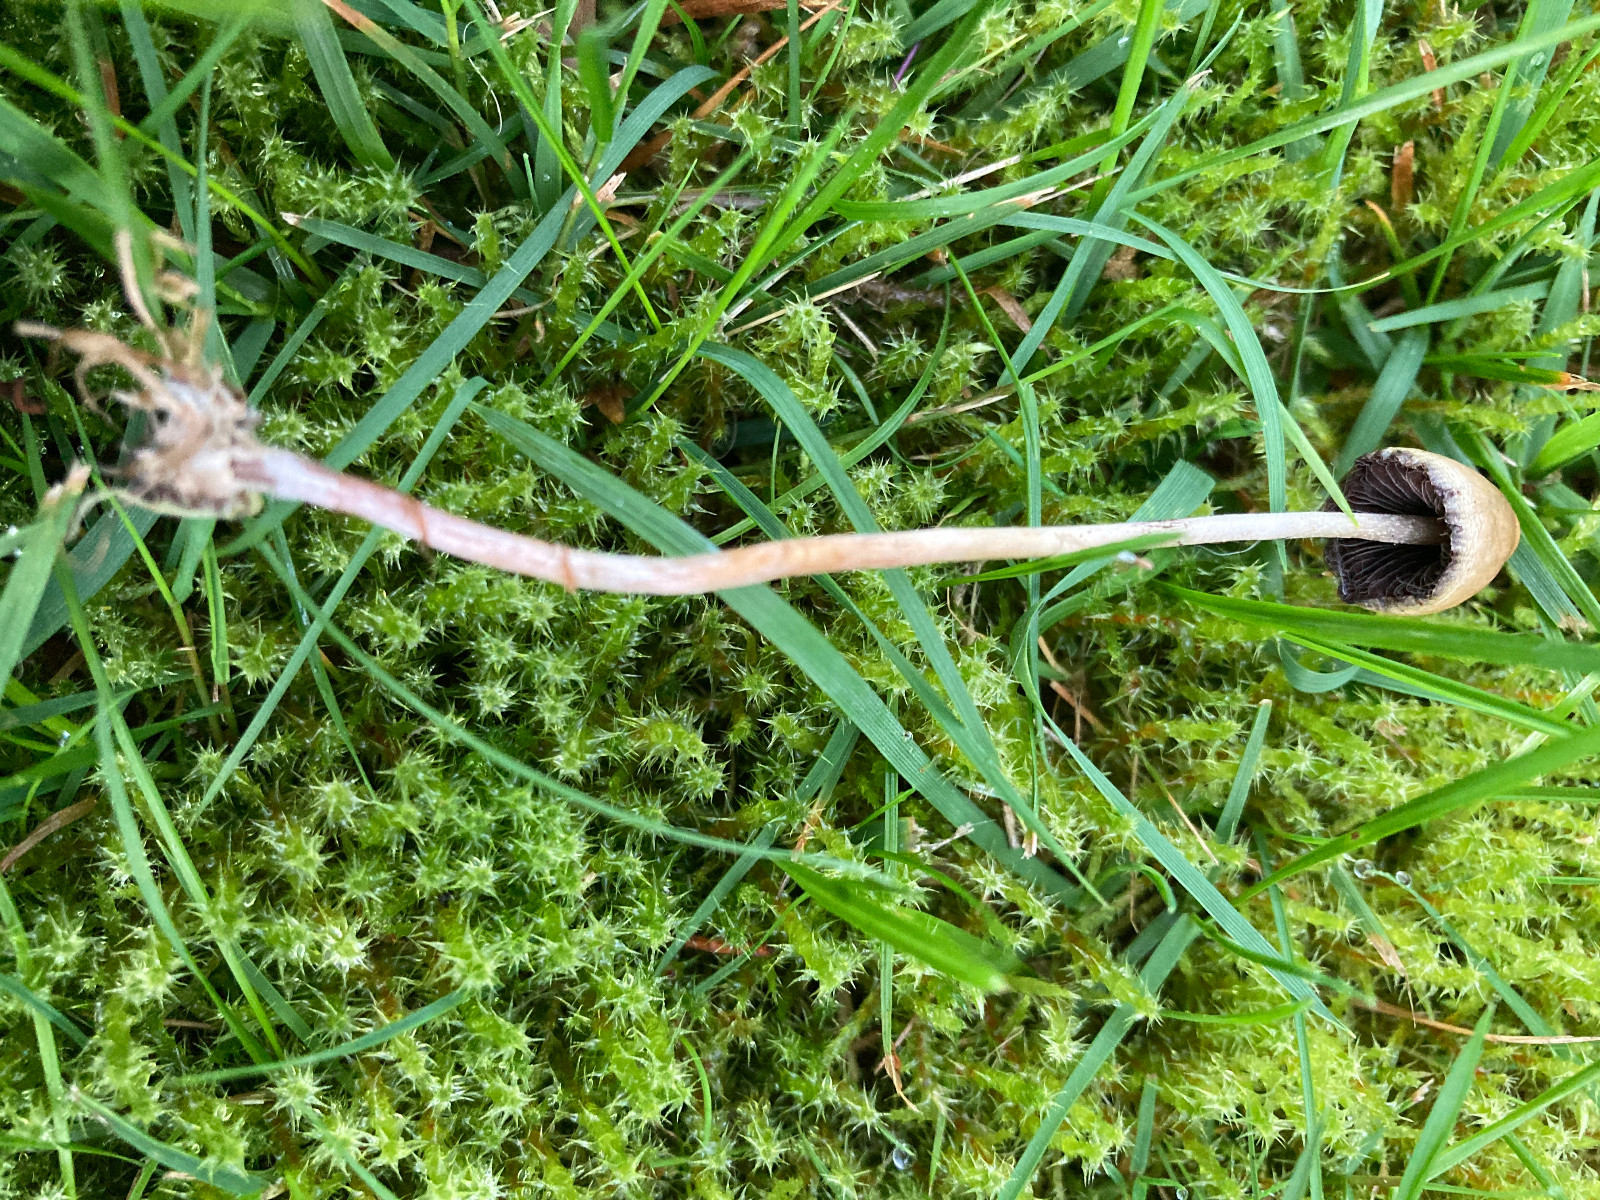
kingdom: Fungi
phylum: Basidiomycota
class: Agaricomycetes
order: Agaricales
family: Hymenogastraceae
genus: Psilocybe
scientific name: Psilocybe semilanceata
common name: spids nøgenhat
